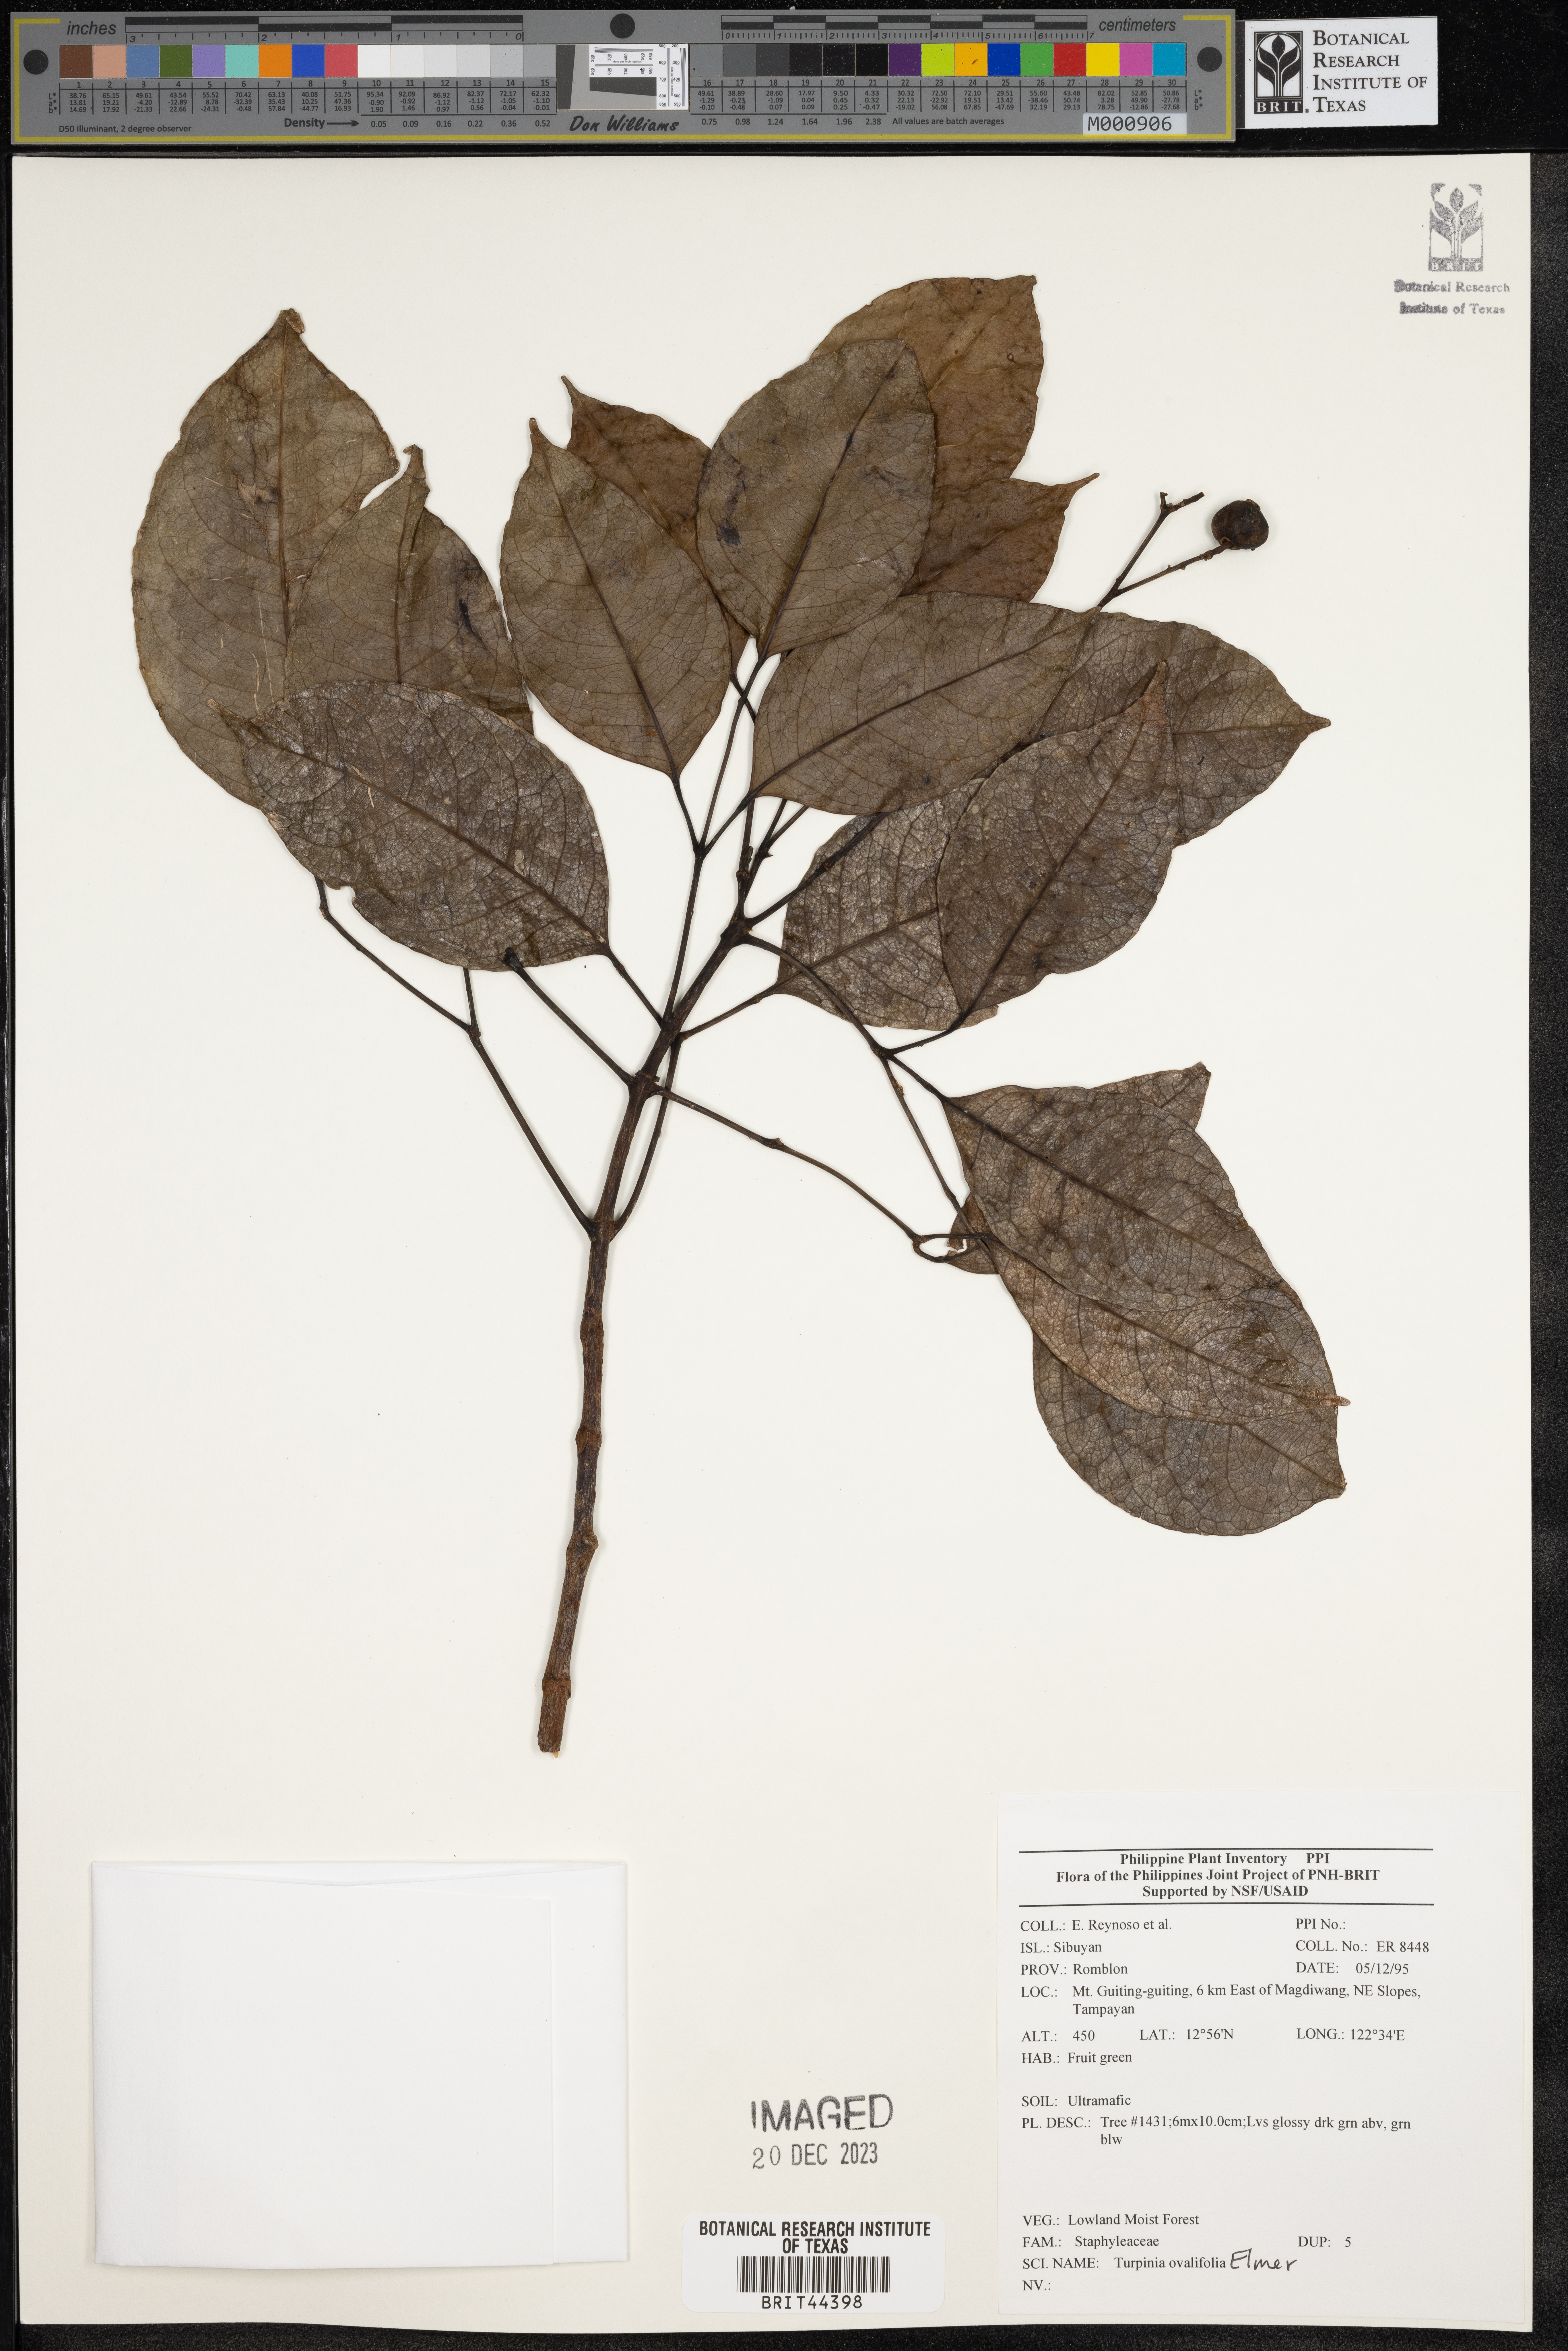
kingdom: Plantae
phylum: Tracheophyta
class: Magnoliopsida
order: Crossosomatales
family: Staphyleaceae
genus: Turpinia
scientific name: Turpinia
